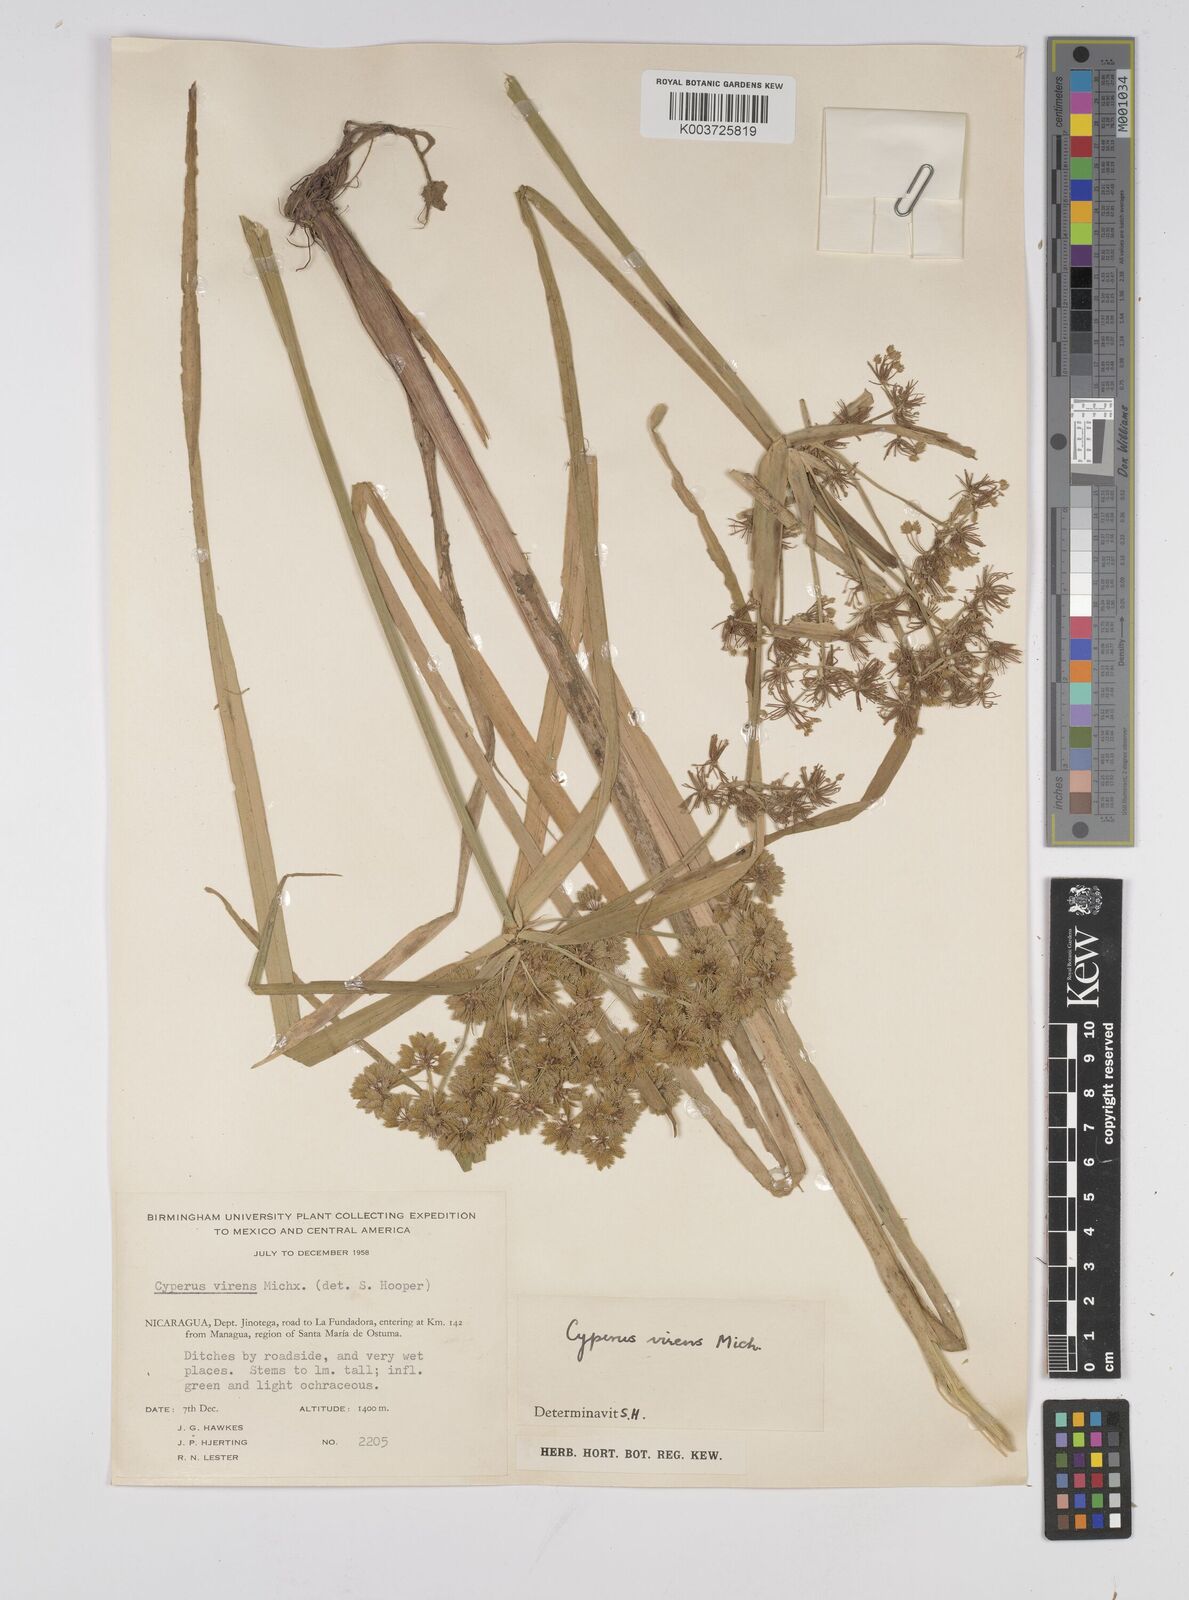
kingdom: Plantae
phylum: Tracheophyta
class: Liliopsida
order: Poales
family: Cyperaceae
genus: Cyperus
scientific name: Cyperus virens
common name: Green flatsedge
